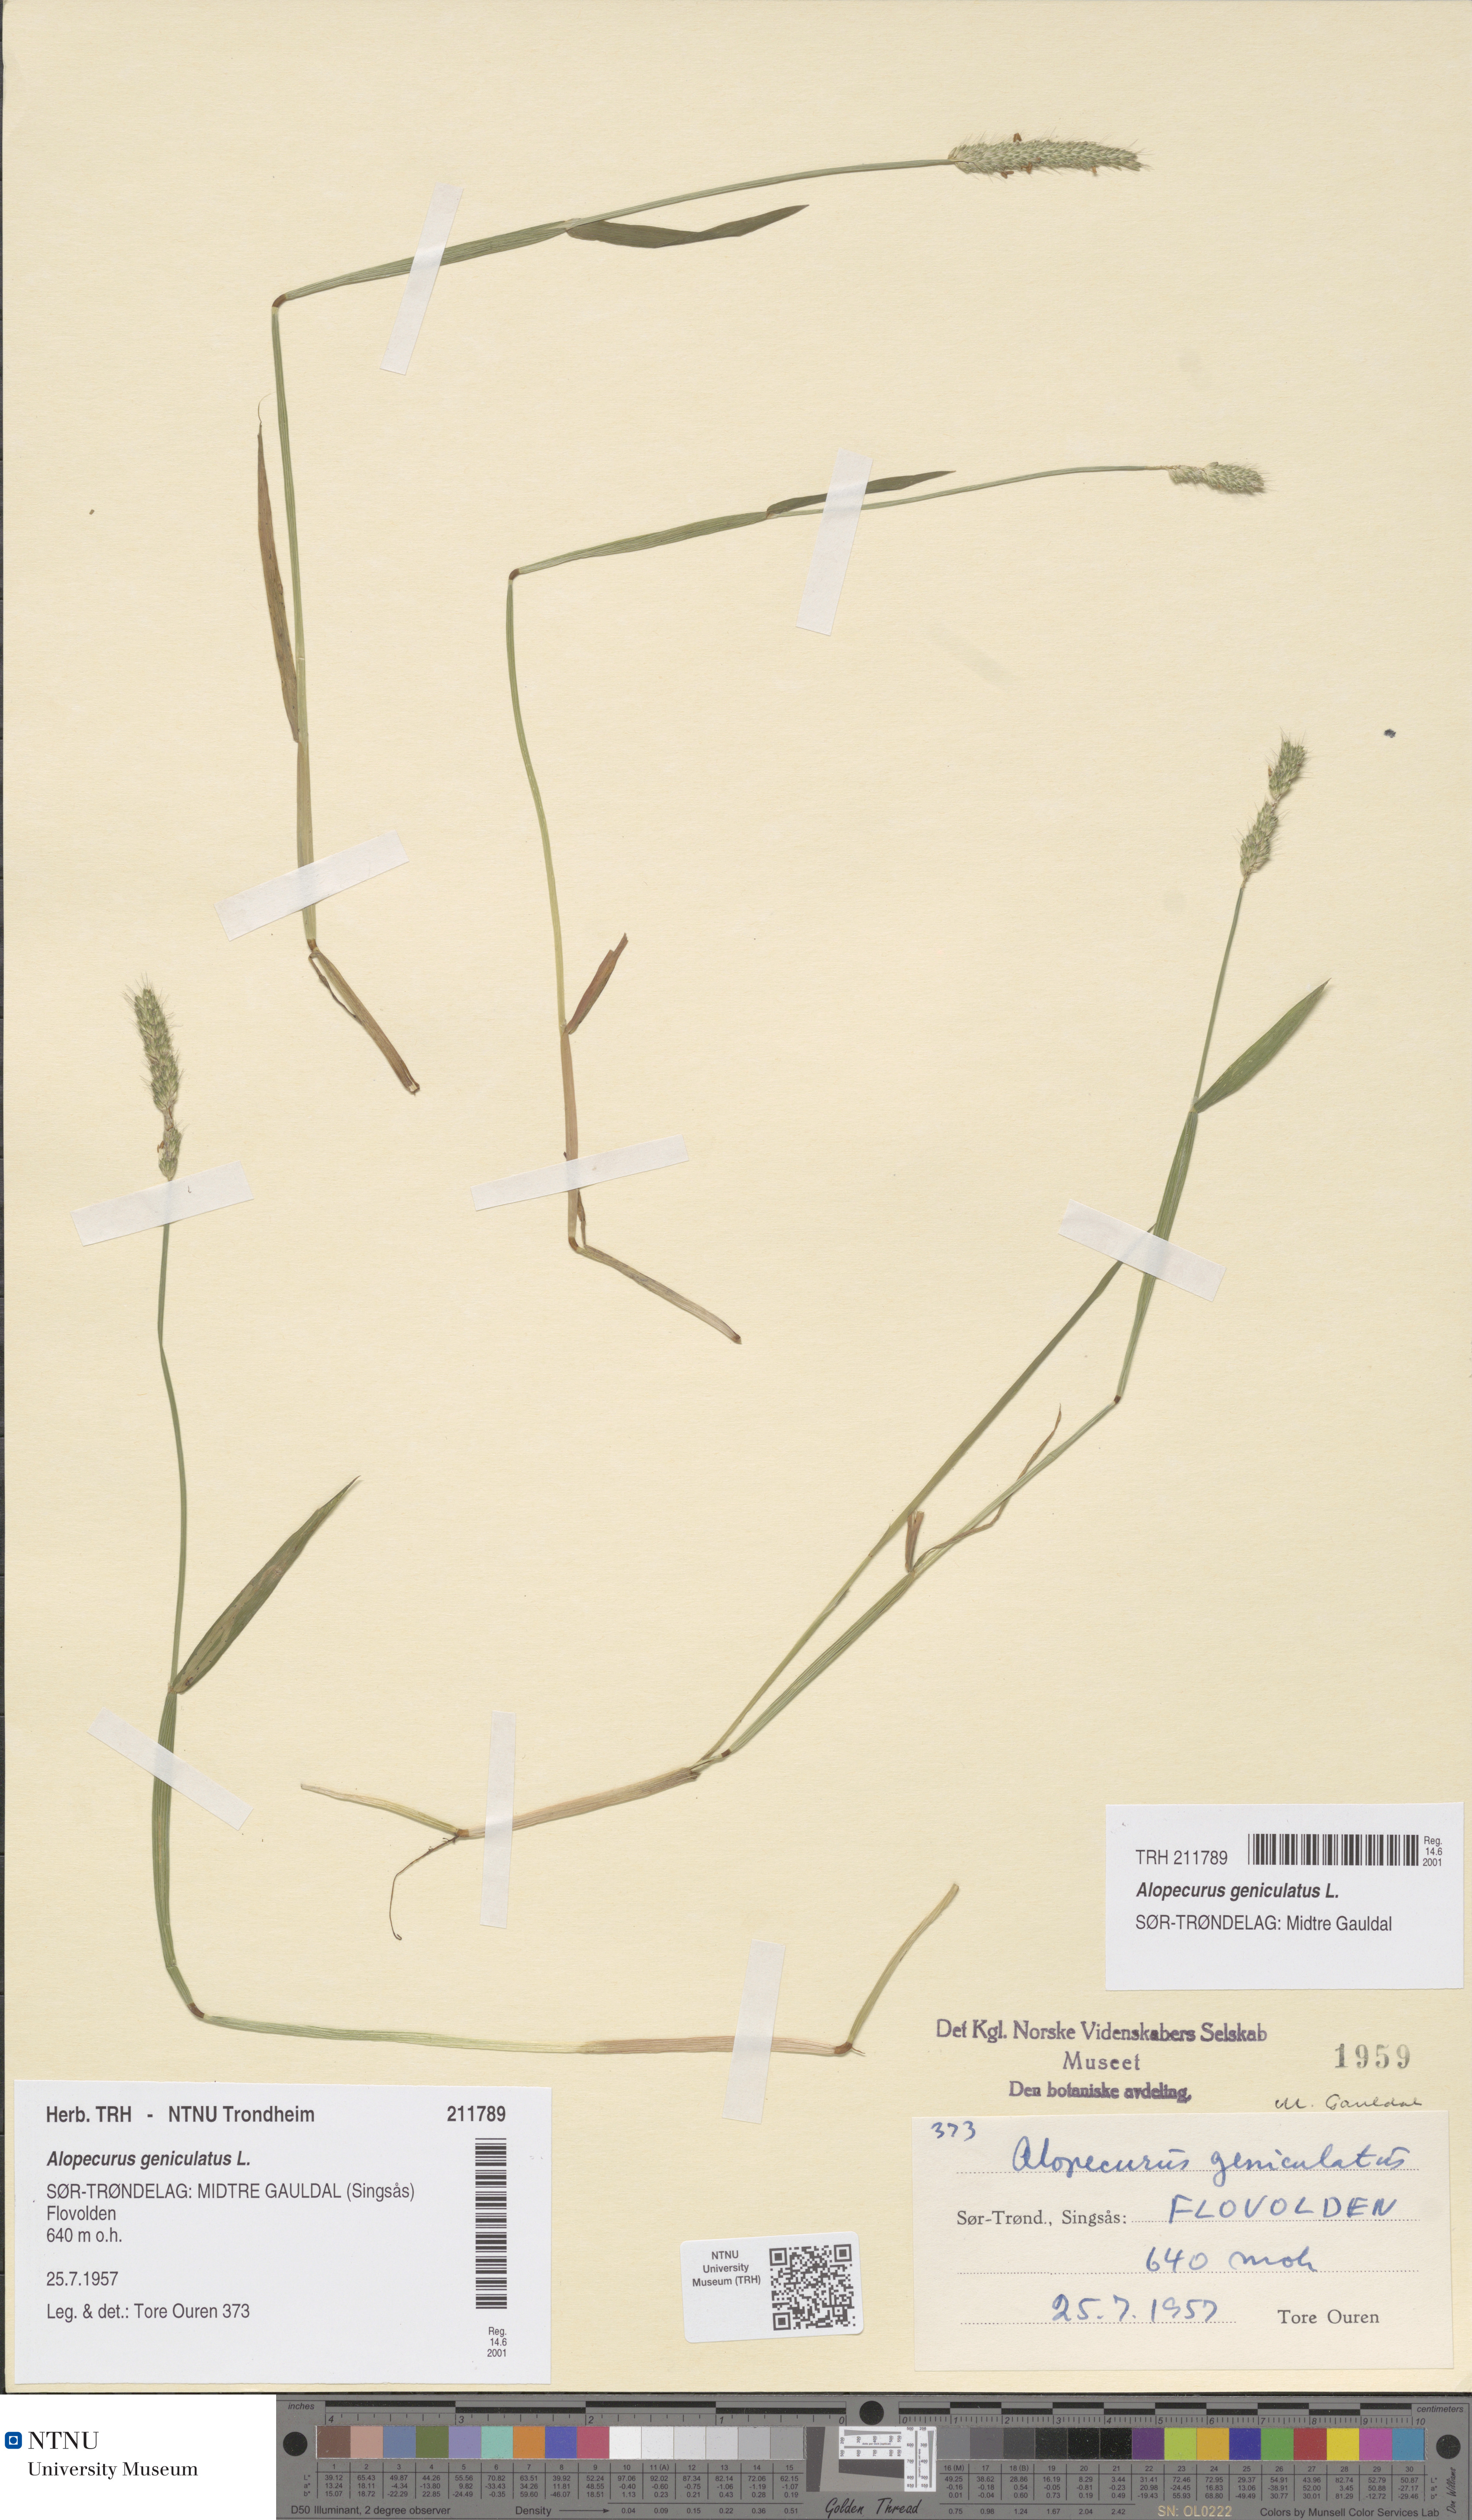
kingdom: Plantae
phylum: Tracheophyta
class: Liliopsida
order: Poales
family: Poaceae
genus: Alopecurus
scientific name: Alopecurus geniculatus
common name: Water foxtail
